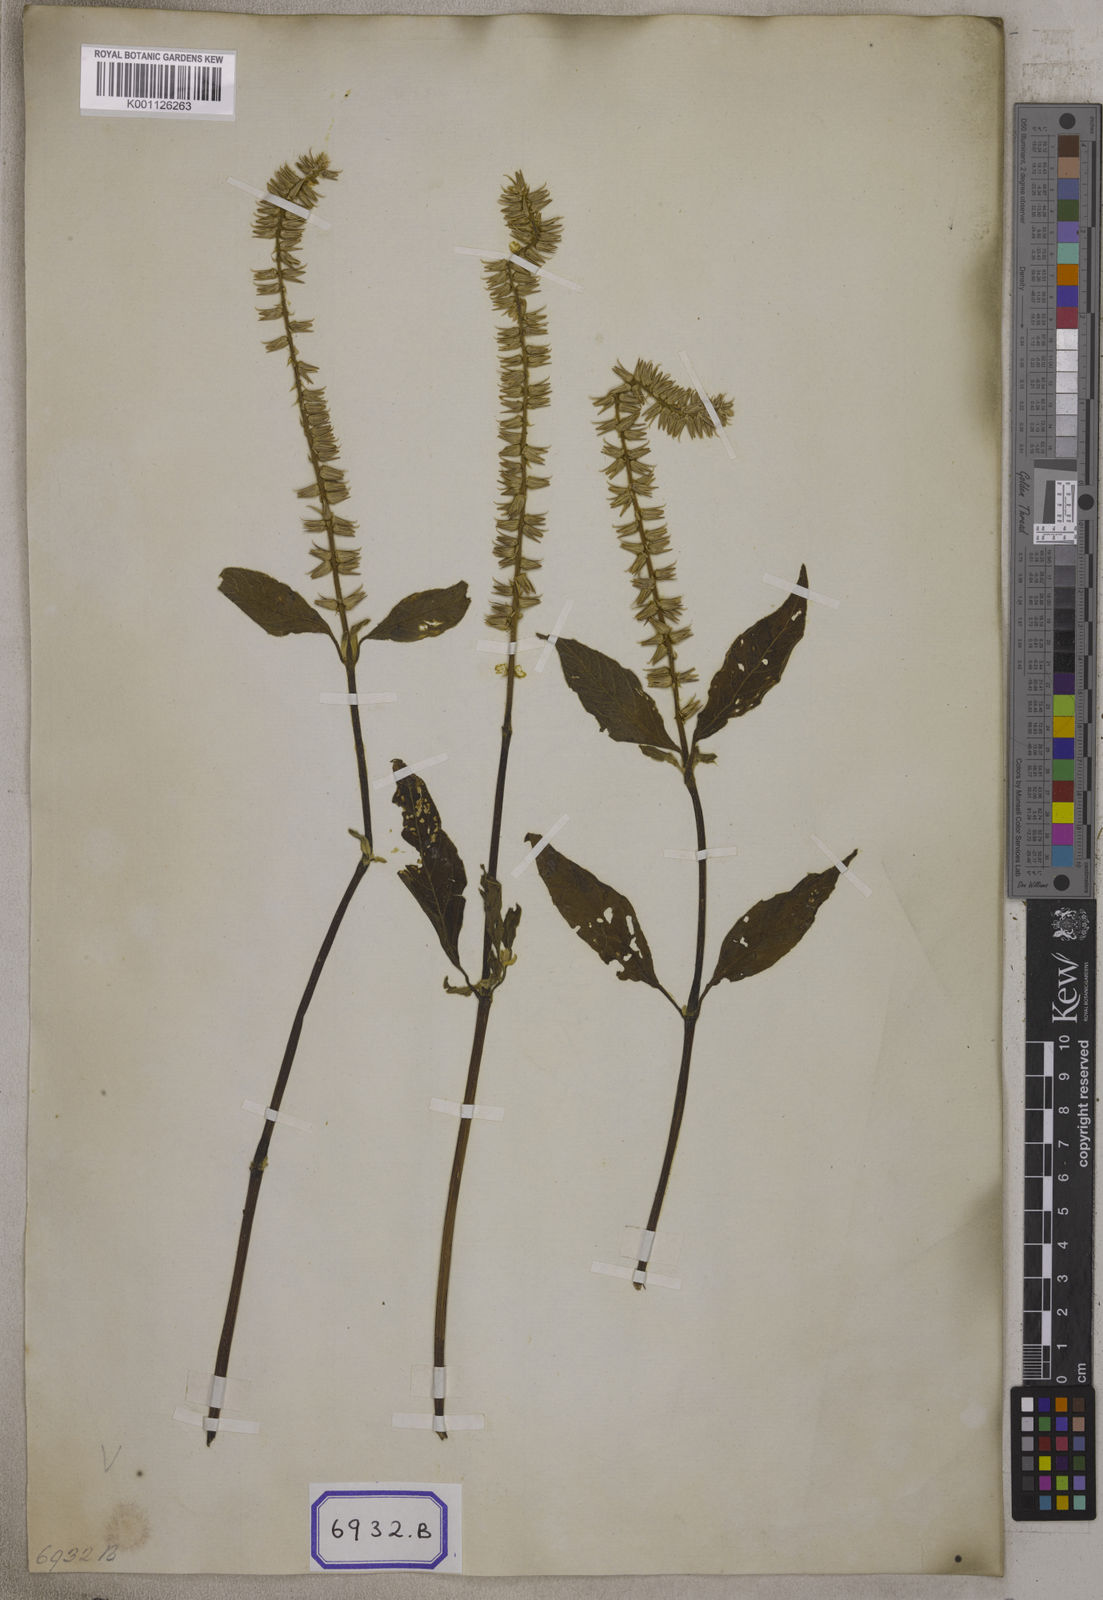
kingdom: Plantae
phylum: Tracheophyta
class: Magnoliopsida
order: Caryophyllales
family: Amaranthaceae
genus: Centrostachys
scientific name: Centrostachys
